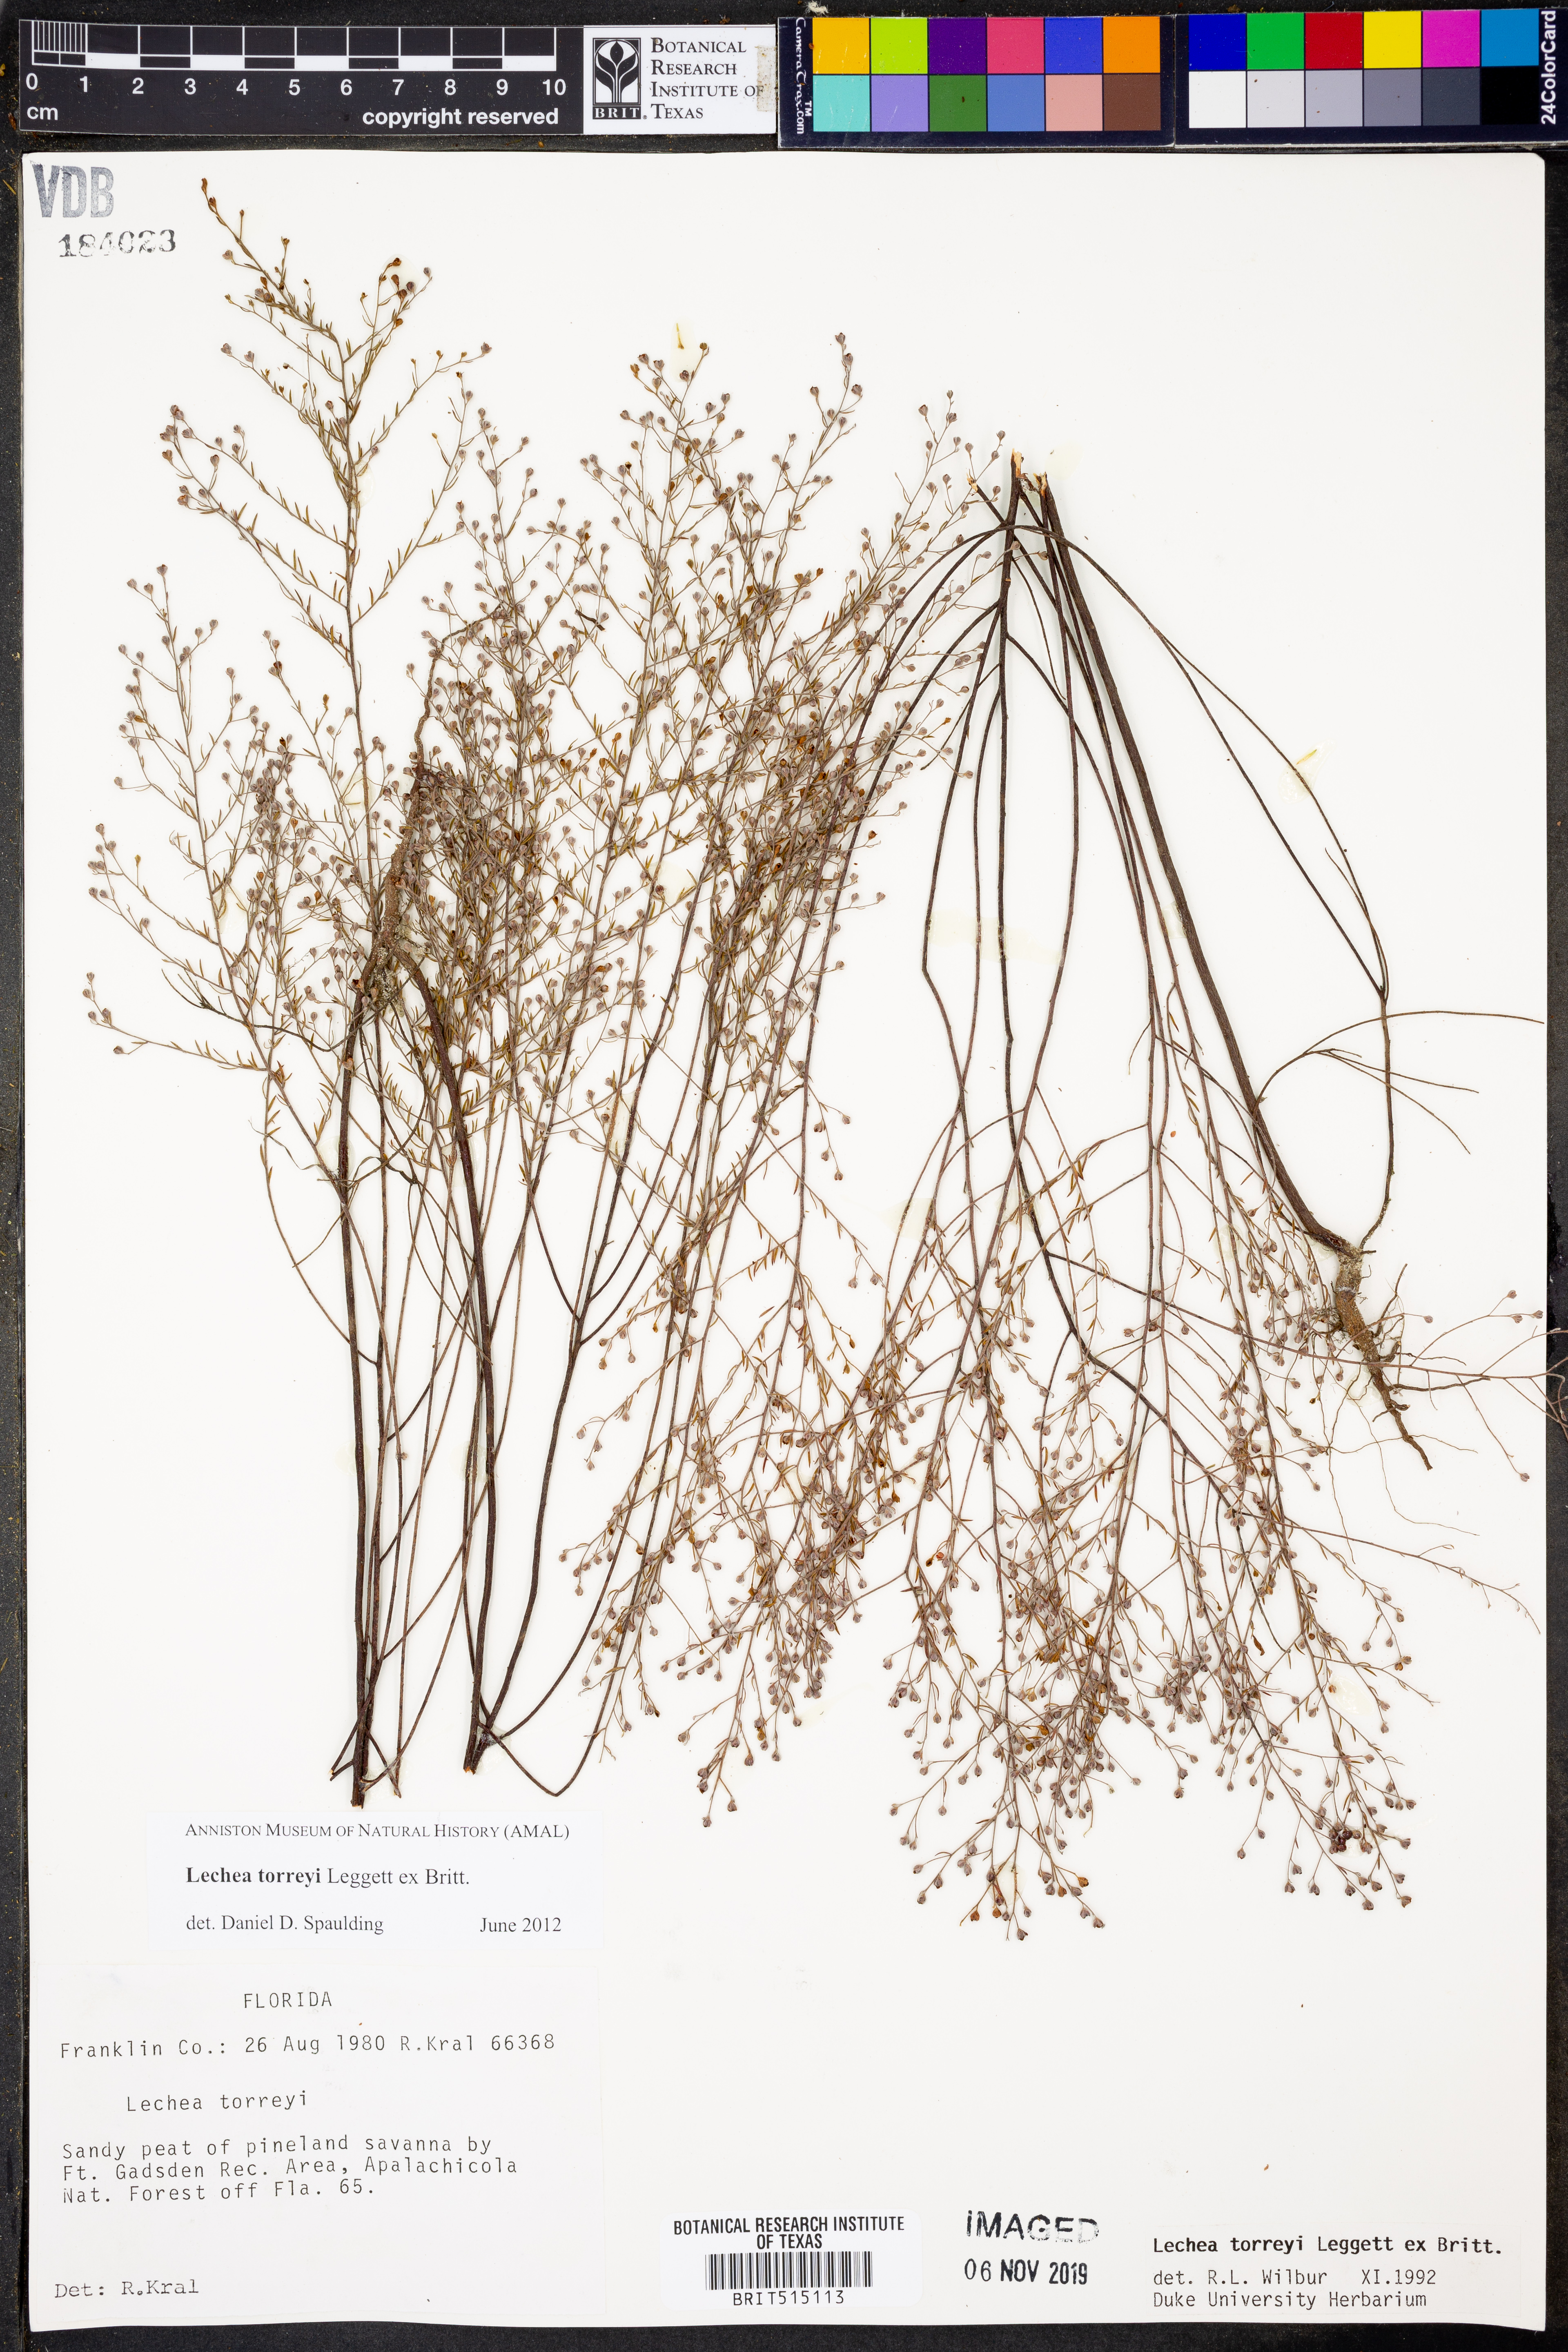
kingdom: Plantae
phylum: Tracheophyta
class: Magnoliopsida
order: Malvales
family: Cistaceae
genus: Lechea
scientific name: Lechea torreyi
